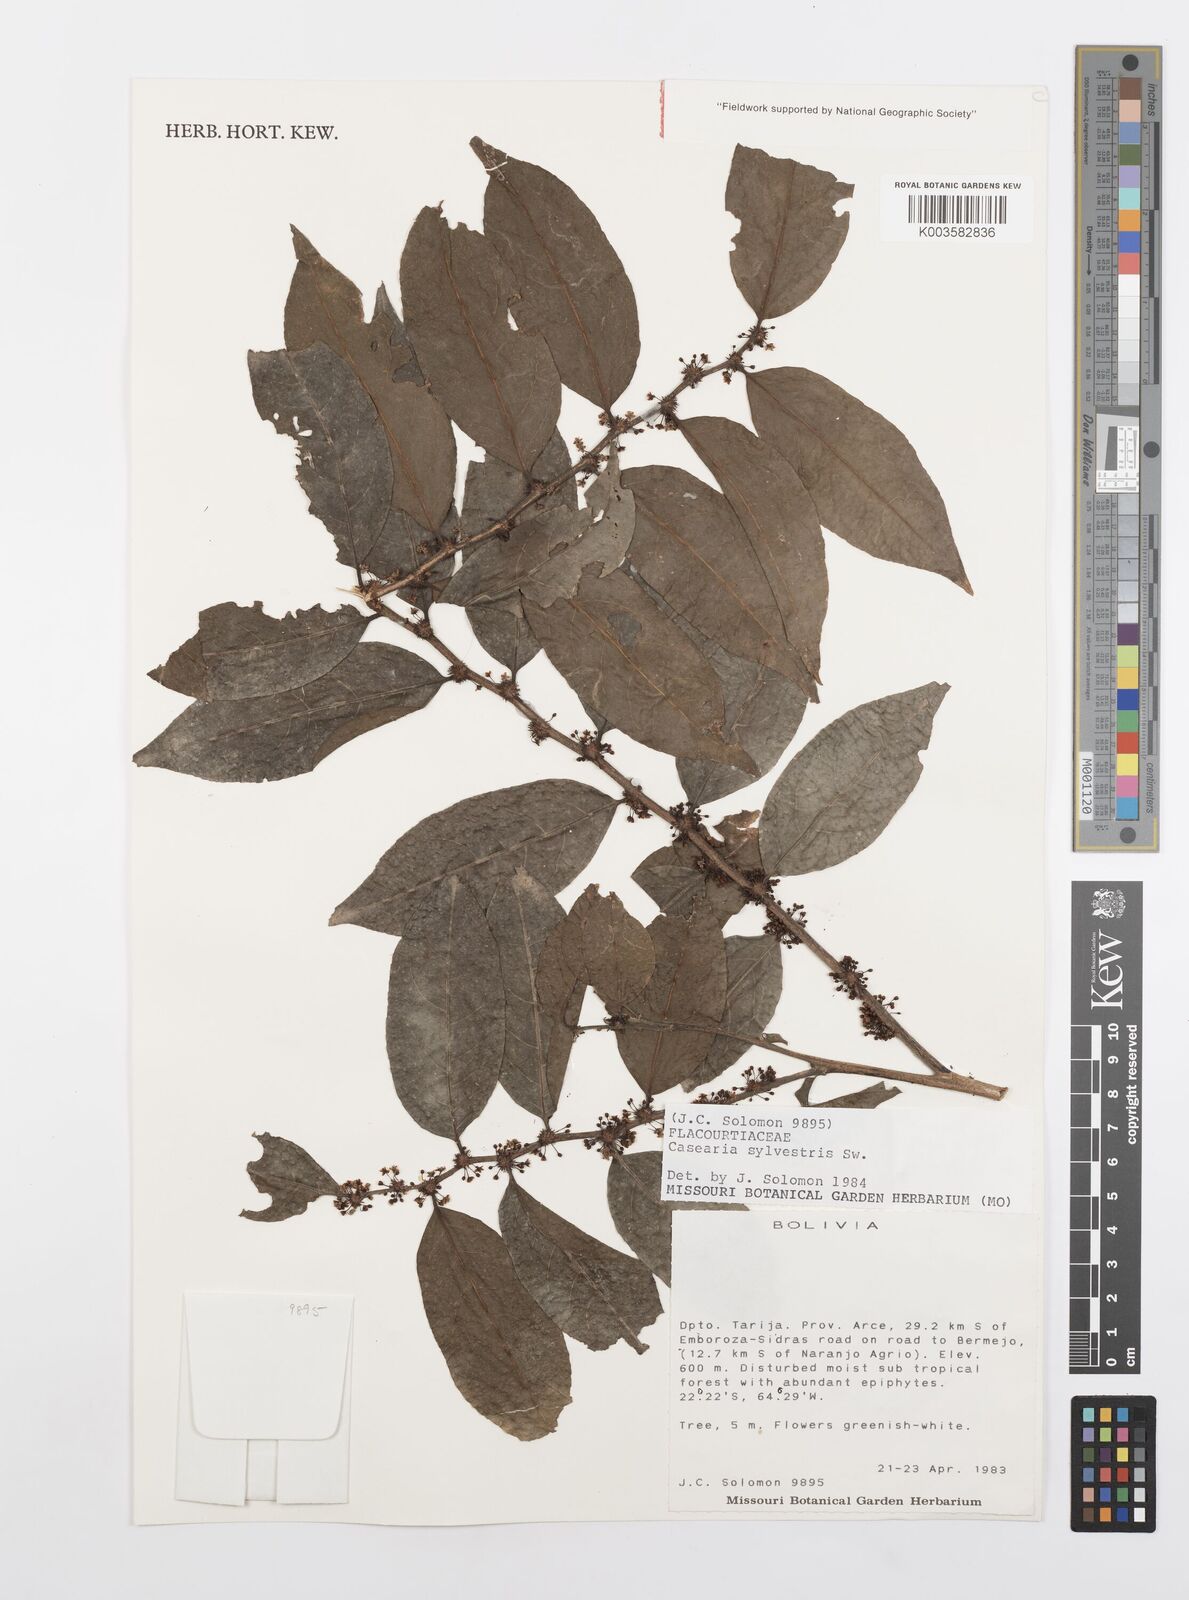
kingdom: Plantae
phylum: Tracheophyta
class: Magnoliopsida
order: Malpighiales
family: Salicaceae
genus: Casearia
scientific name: Casearia sylvestris
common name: Wild sage
